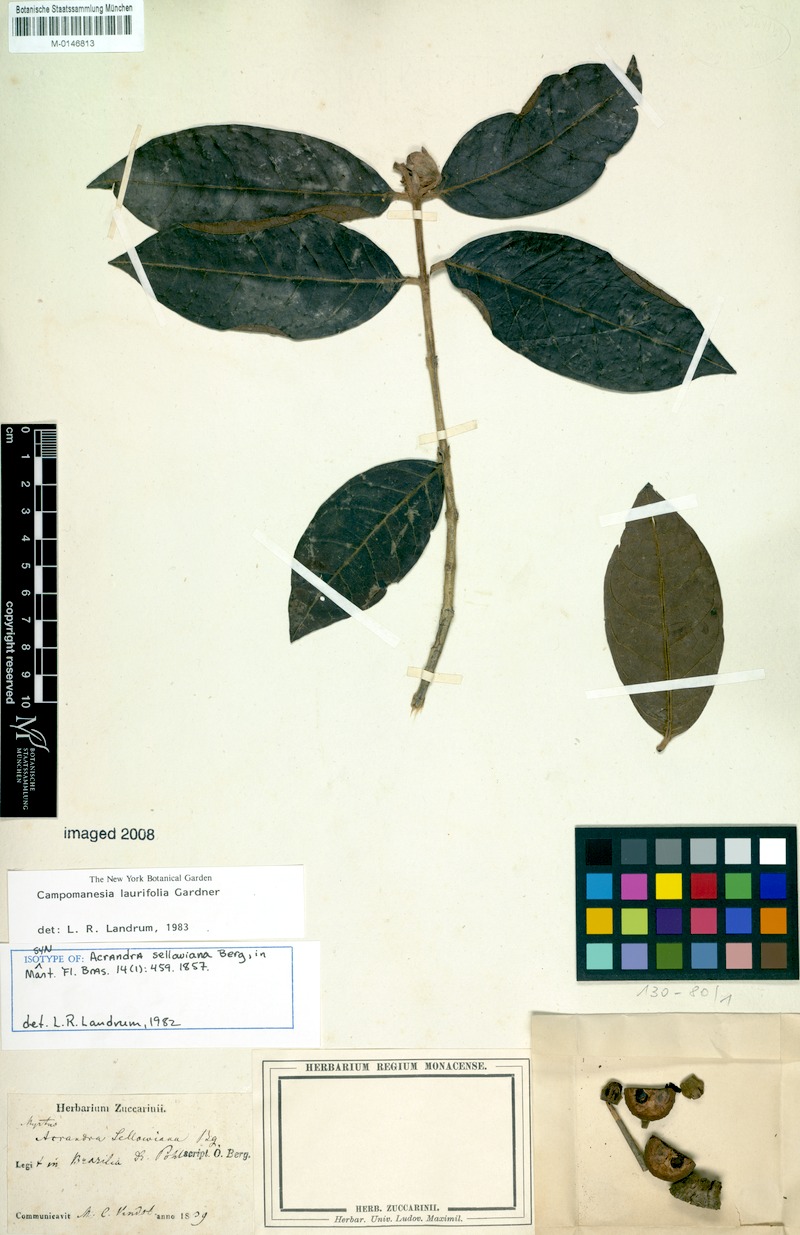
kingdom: Plantae
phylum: Tracheophyta
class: Magnoliopsida
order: Myrtales
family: Myrtaceae
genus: Campomanesia
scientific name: Campomanesia laurifolia
